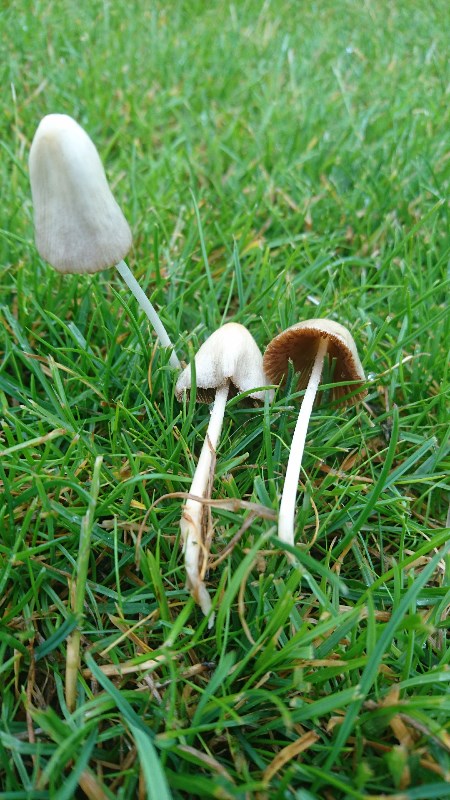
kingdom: Fungi
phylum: Basidiomycota
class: Agaricomycetes
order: Agaricales
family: Bolbitiaceae
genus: Conocybe
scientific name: Conocybe apala
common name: mælkehvid keglehat
